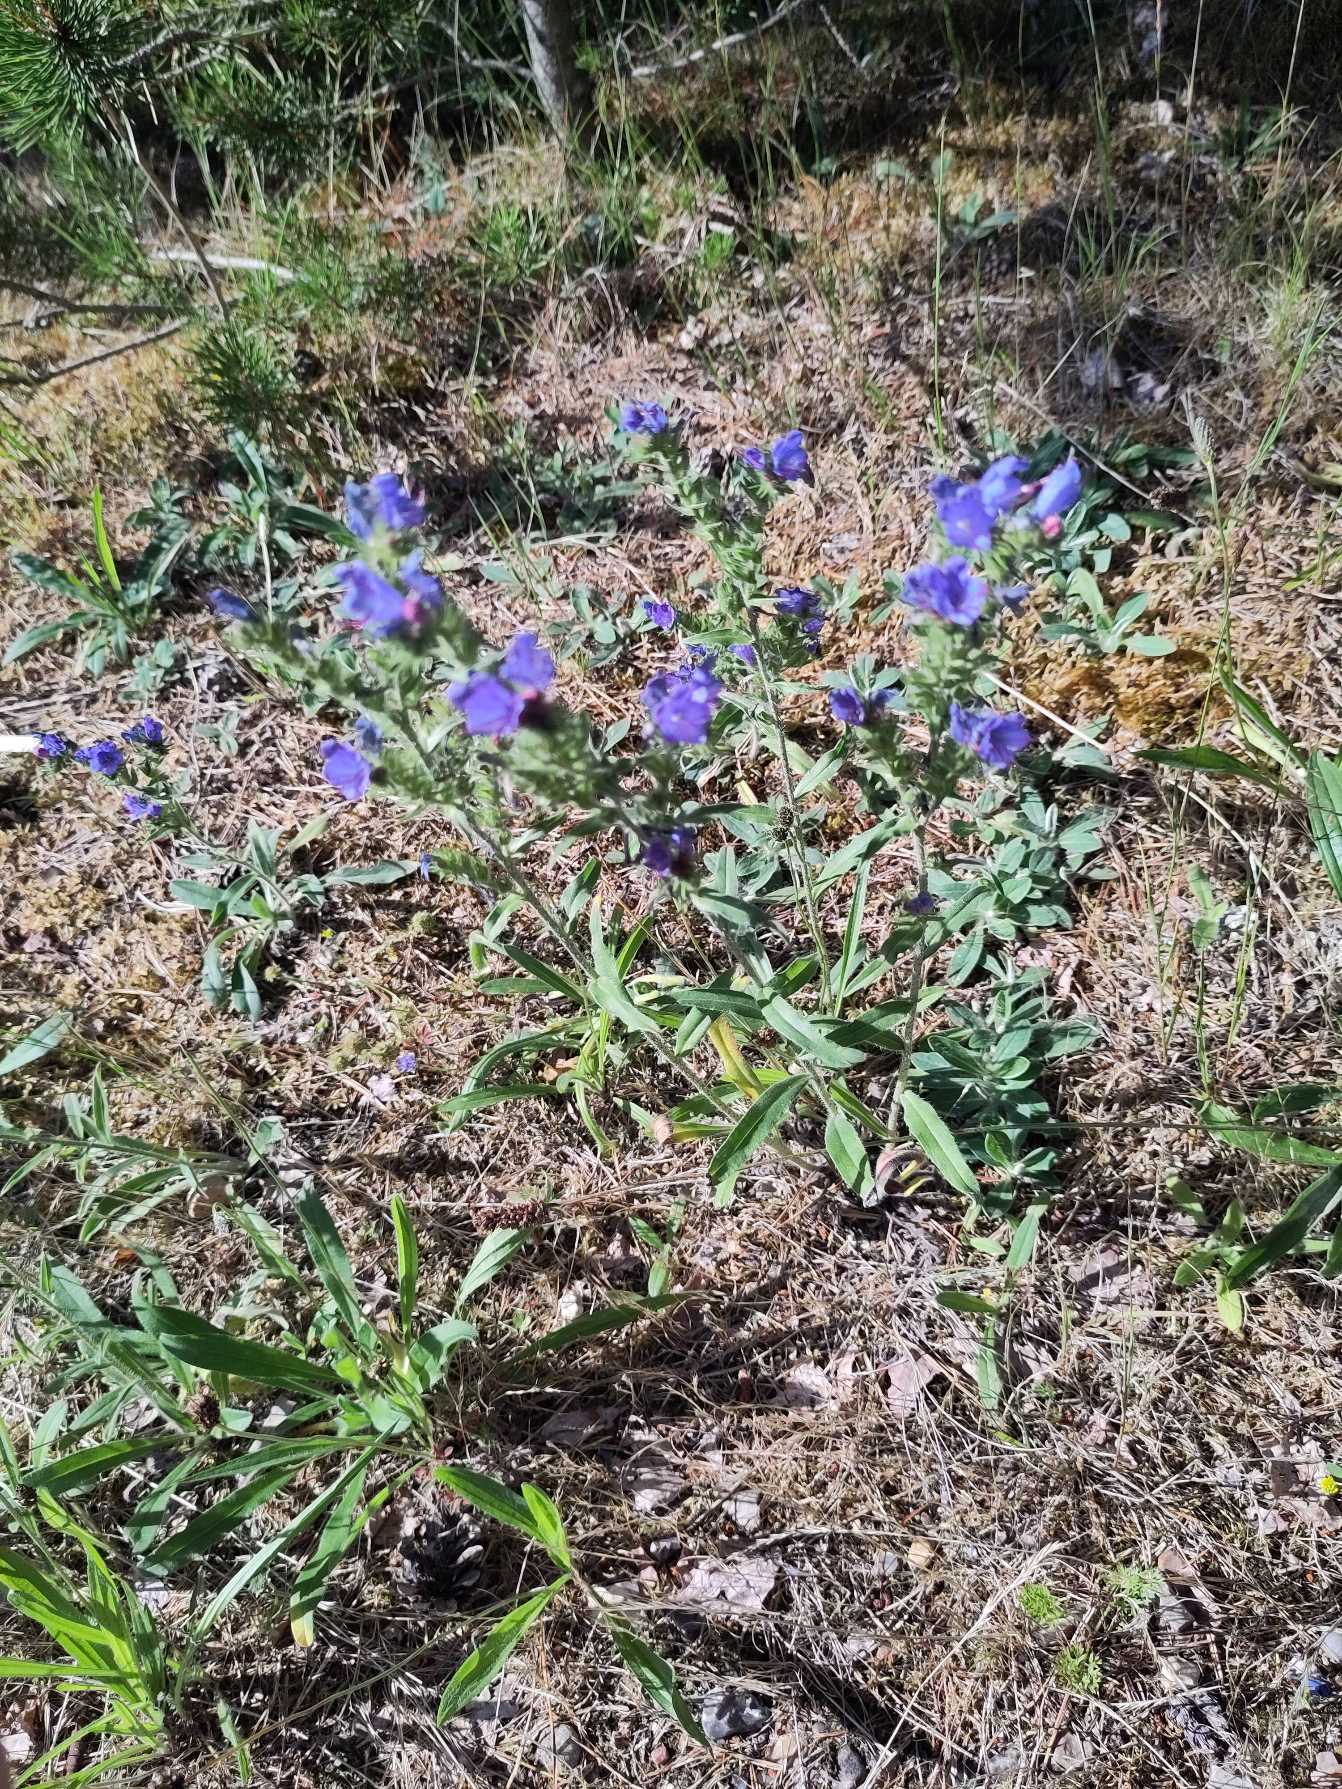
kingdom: Plantae
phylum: Tracheophyta
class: Magnoliopsida
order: Boraginales
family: Boraginaceae
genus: Echium
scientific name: Echium vulgare
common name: Slangehoved
